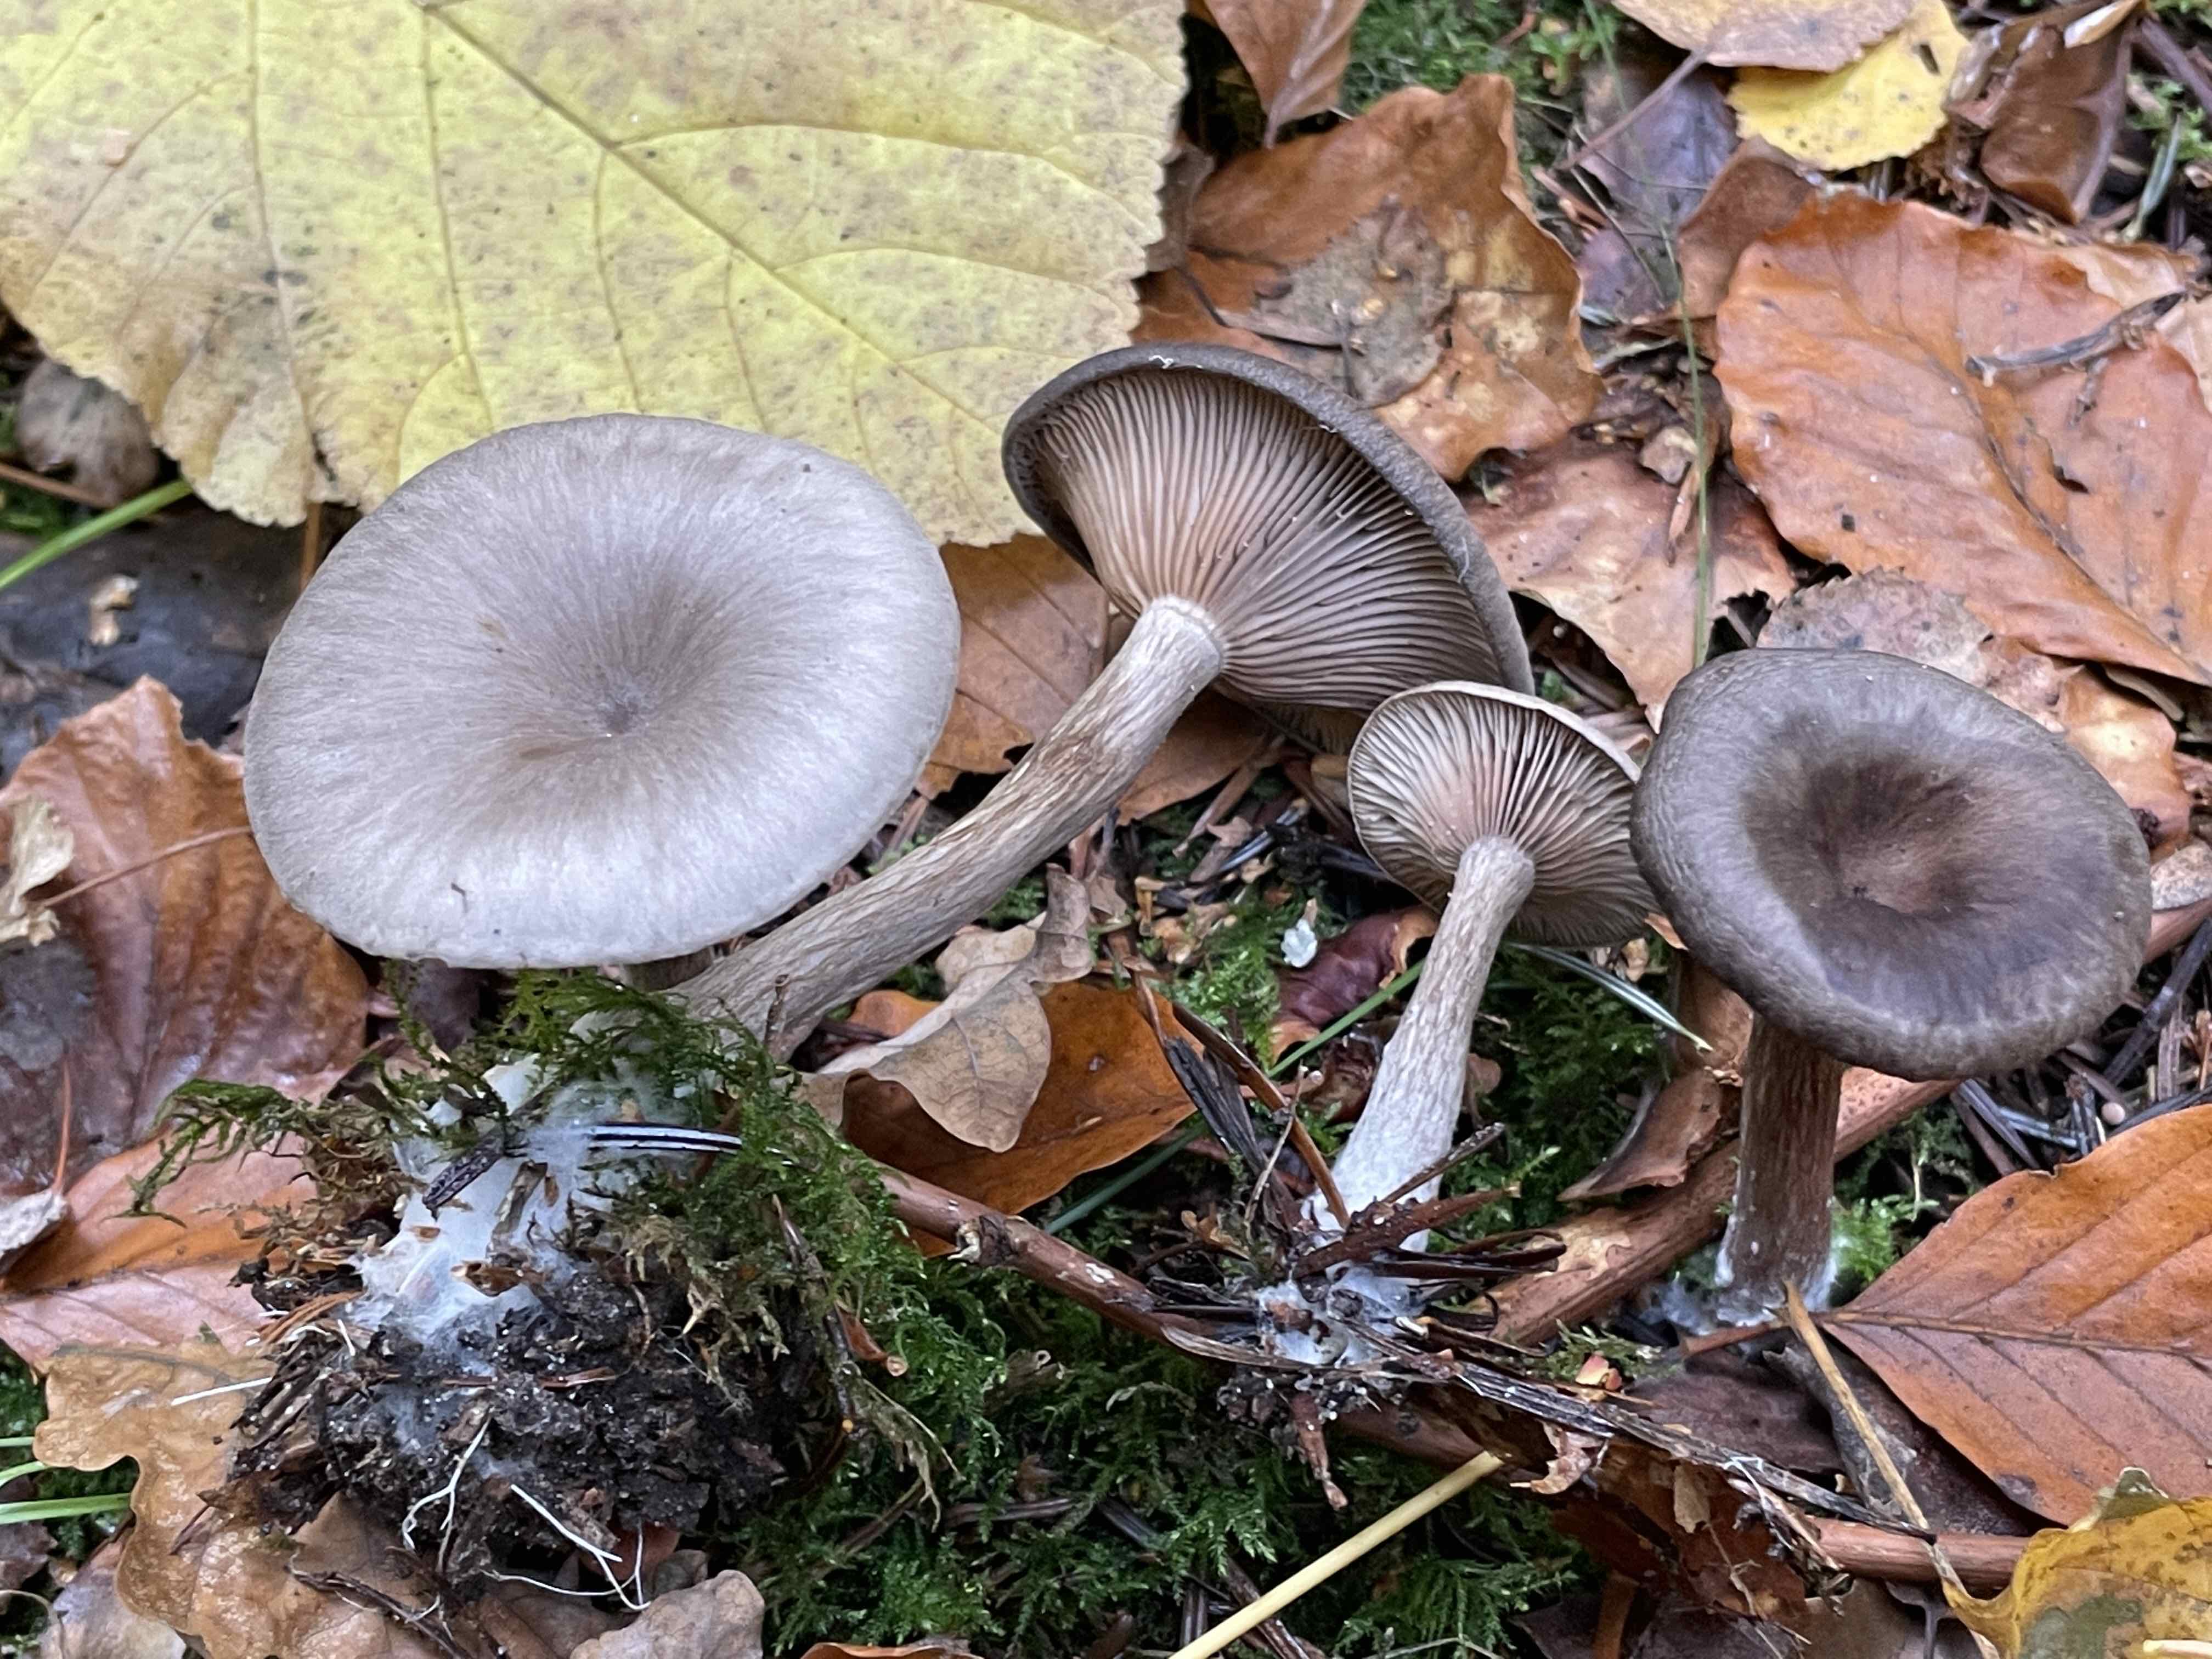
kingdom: Fungi
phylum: Basidiomycota
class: Agaricomycetes
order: Agaricales
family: Pseudoclitocybaceae
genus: Pseudoclitocybe
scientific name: Pseudoclitocybe cyathiformis
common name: almindelig bægertragthat
